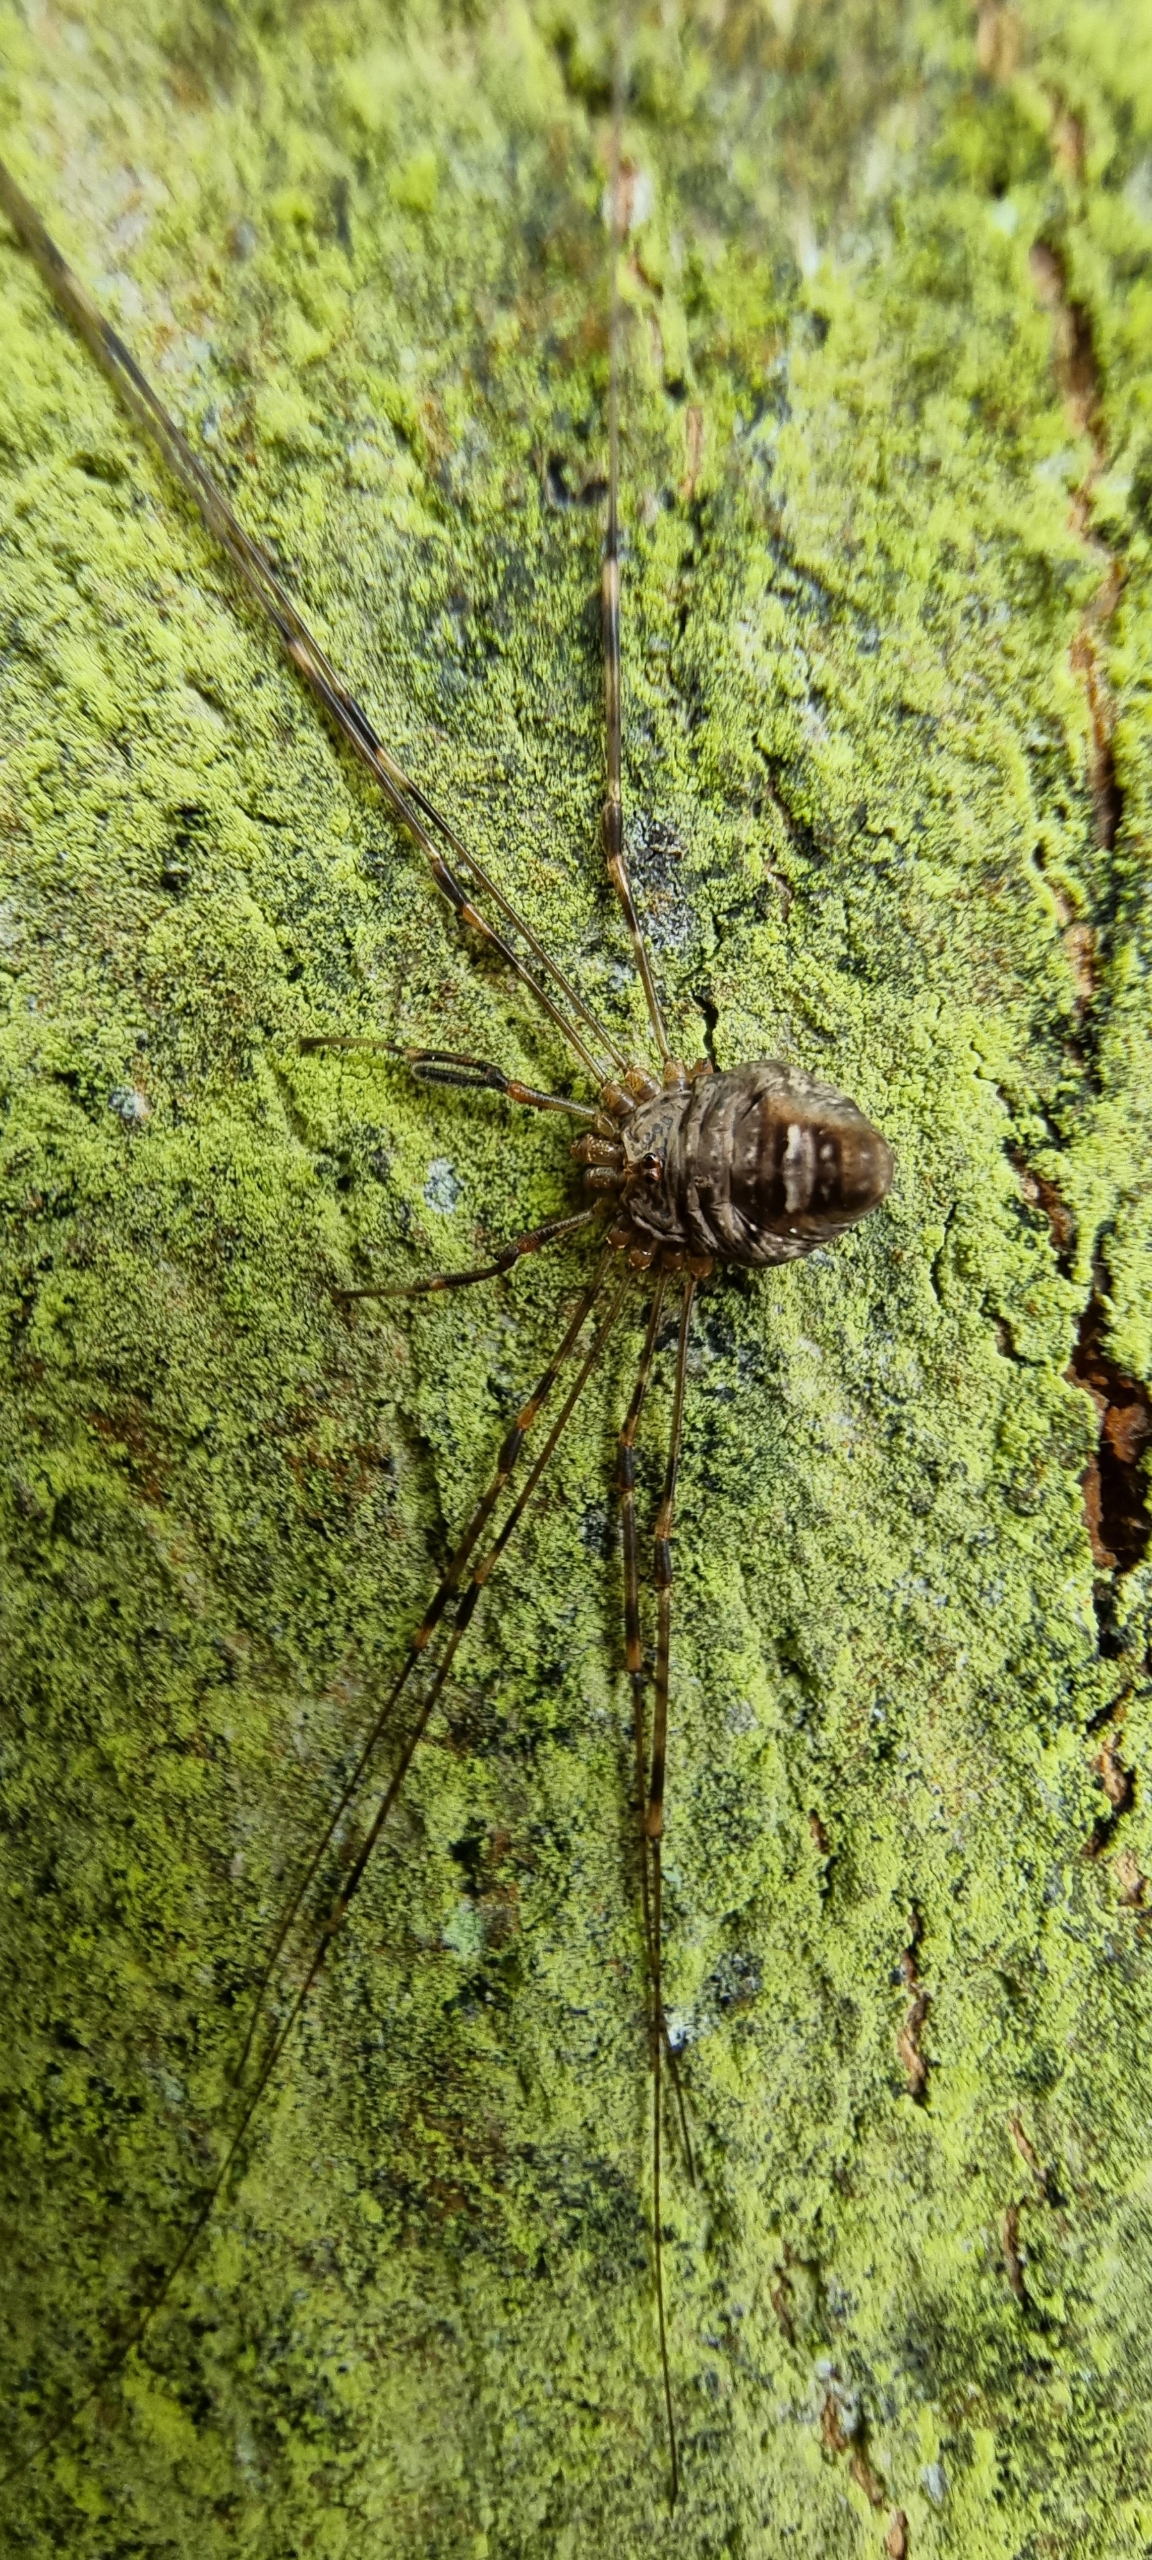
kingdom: Animalia
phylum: Arthropoda
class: Arachnida
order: Opiliones
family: Phalangiidae
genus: Dicranopalpus
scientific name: Dicranopalpus ramosus
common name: Gaffelmejer
